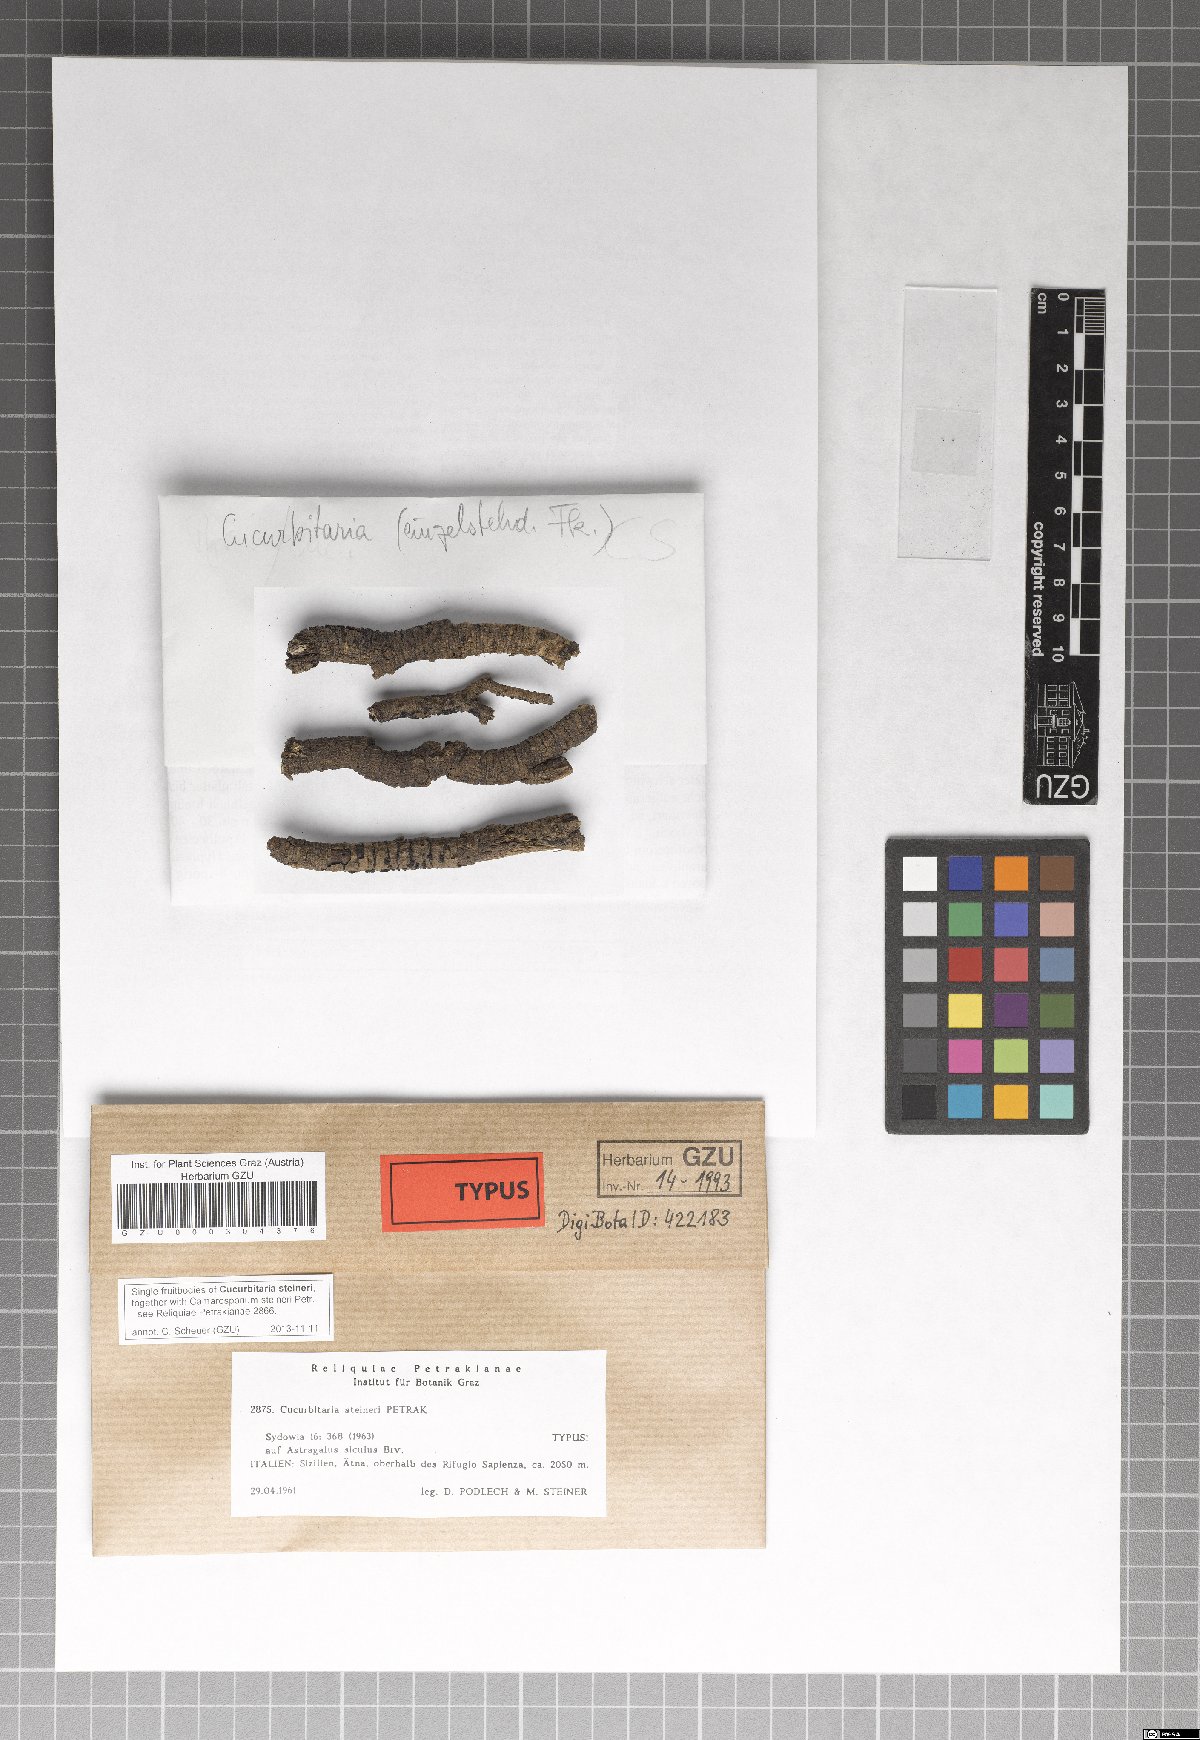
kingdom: Fungi
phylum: Ascomycota
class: Dothideomycetes
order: Pleosporales
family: Cucurbitariaceae
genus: Cucurbitaria
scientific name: Cucurbitaria steineri
